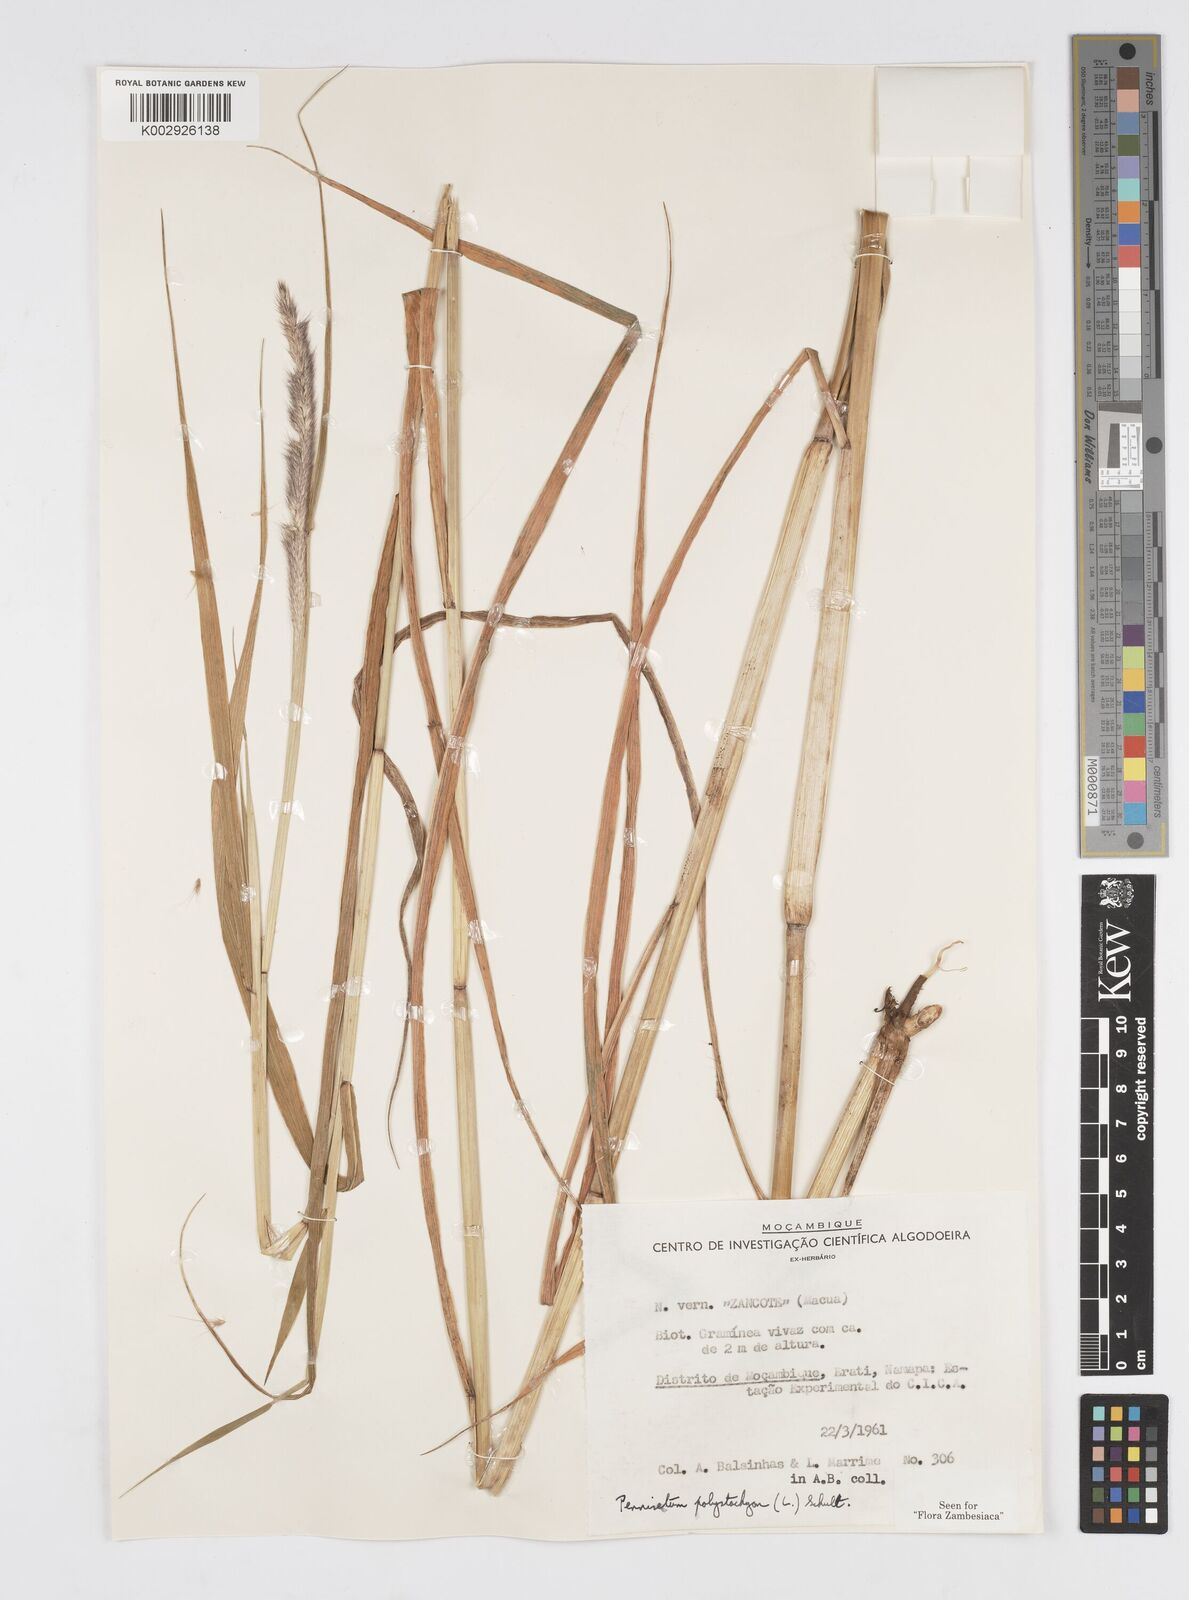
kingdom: Plantae
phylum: Tracheophyta
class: Liliopsida
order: Poales
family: Poaceae
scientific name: Poaceae
